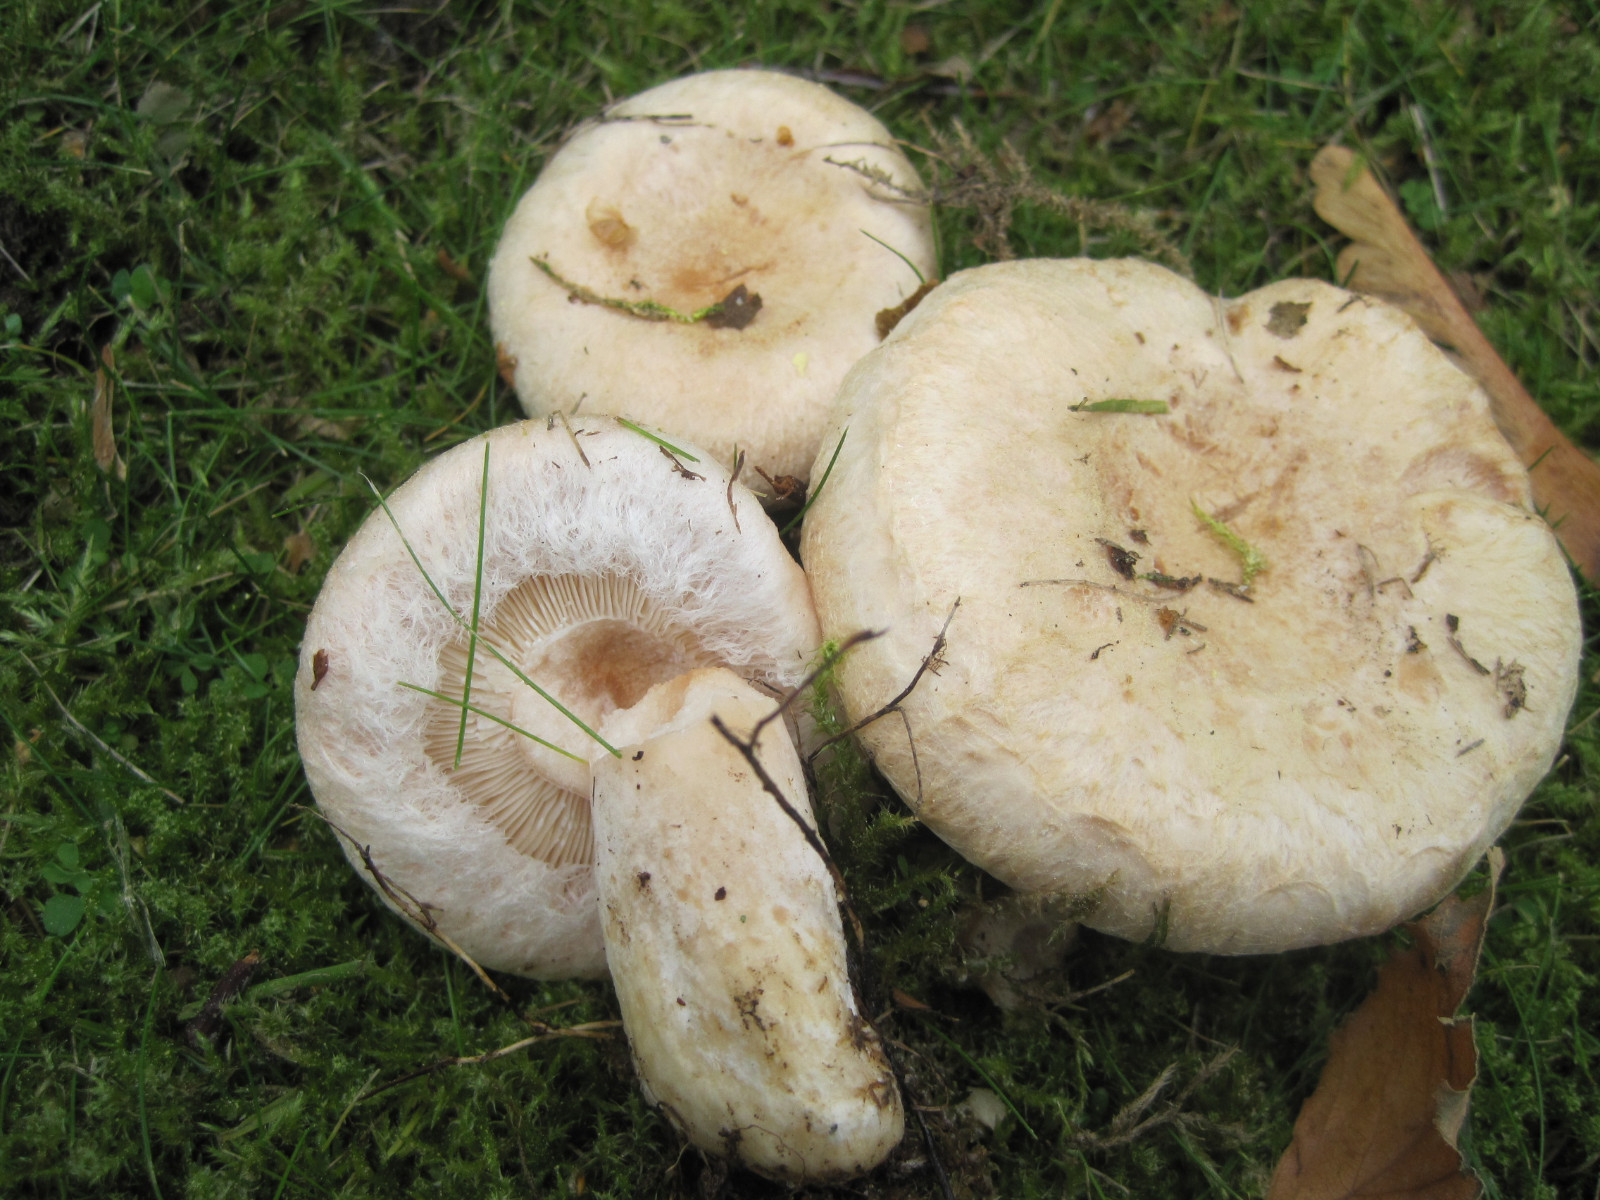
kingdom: Fungi
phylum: Basidiomycota
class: Agaricomycetes
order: Russulales
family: Russulaceae
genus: Lactarius
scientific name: Lactarius pubescens
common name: dunet mælkehat
